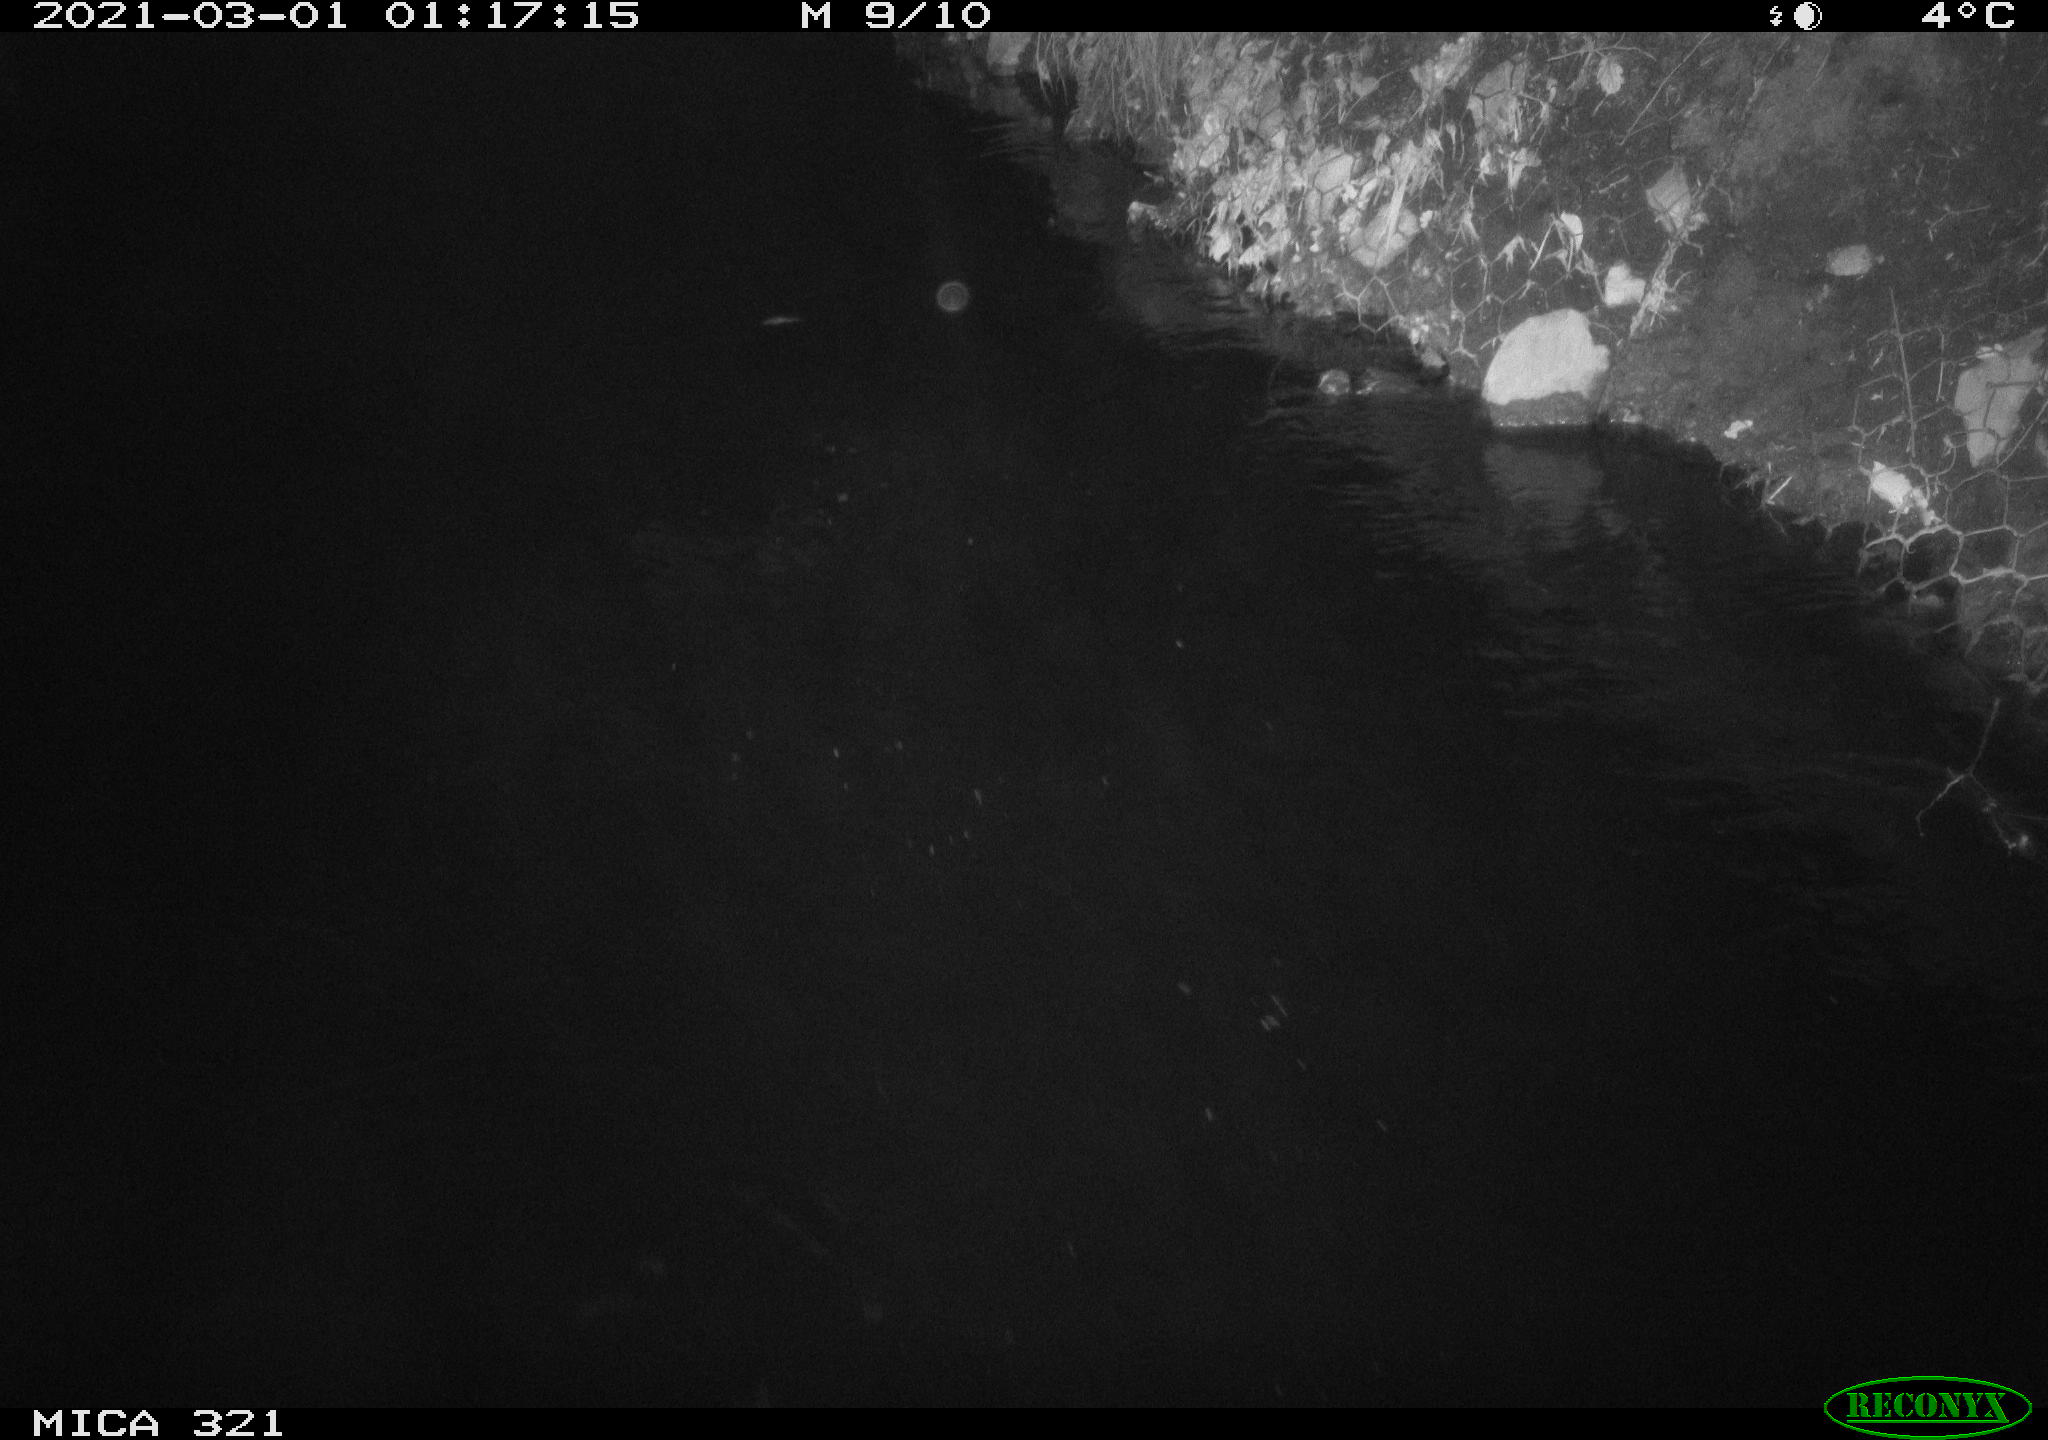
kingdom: Animalia
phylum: Chordata
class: Aves
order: Anseriformes
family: Anatidae
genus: Anas
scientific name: Anas platyrhynchos
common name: Mallard
